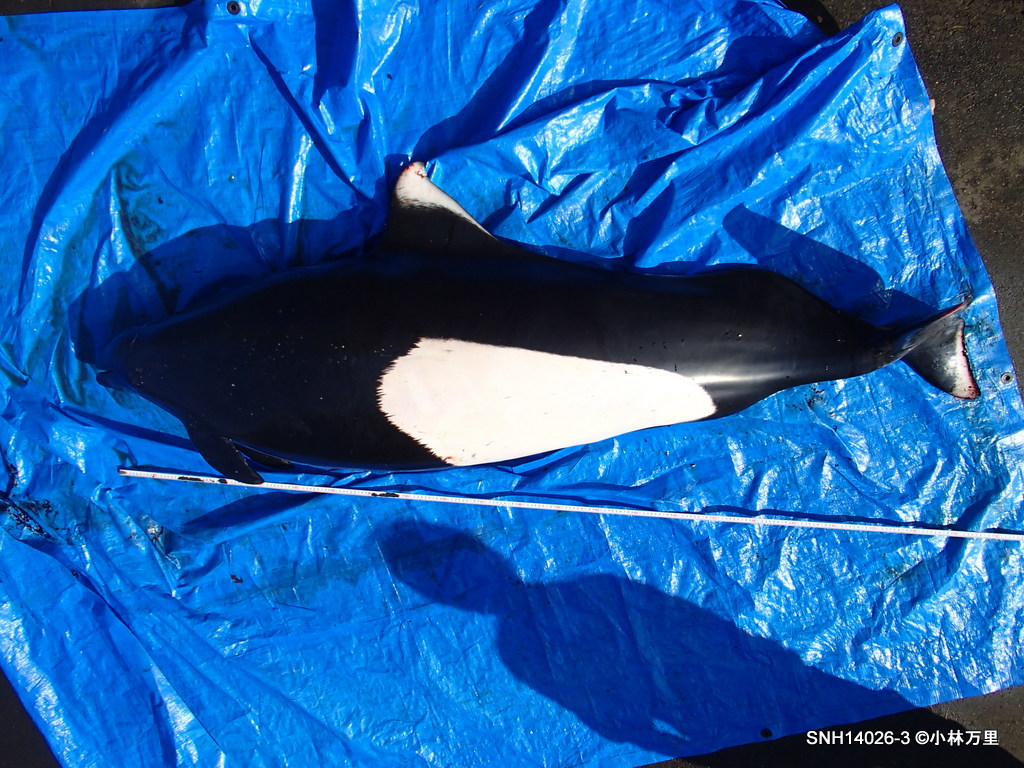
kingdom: Animalia
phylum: Chordata
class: Mammalia
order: Cetacea
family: Phocoenidae
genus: Phocoenoides
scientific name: Phocoenoides dalli
